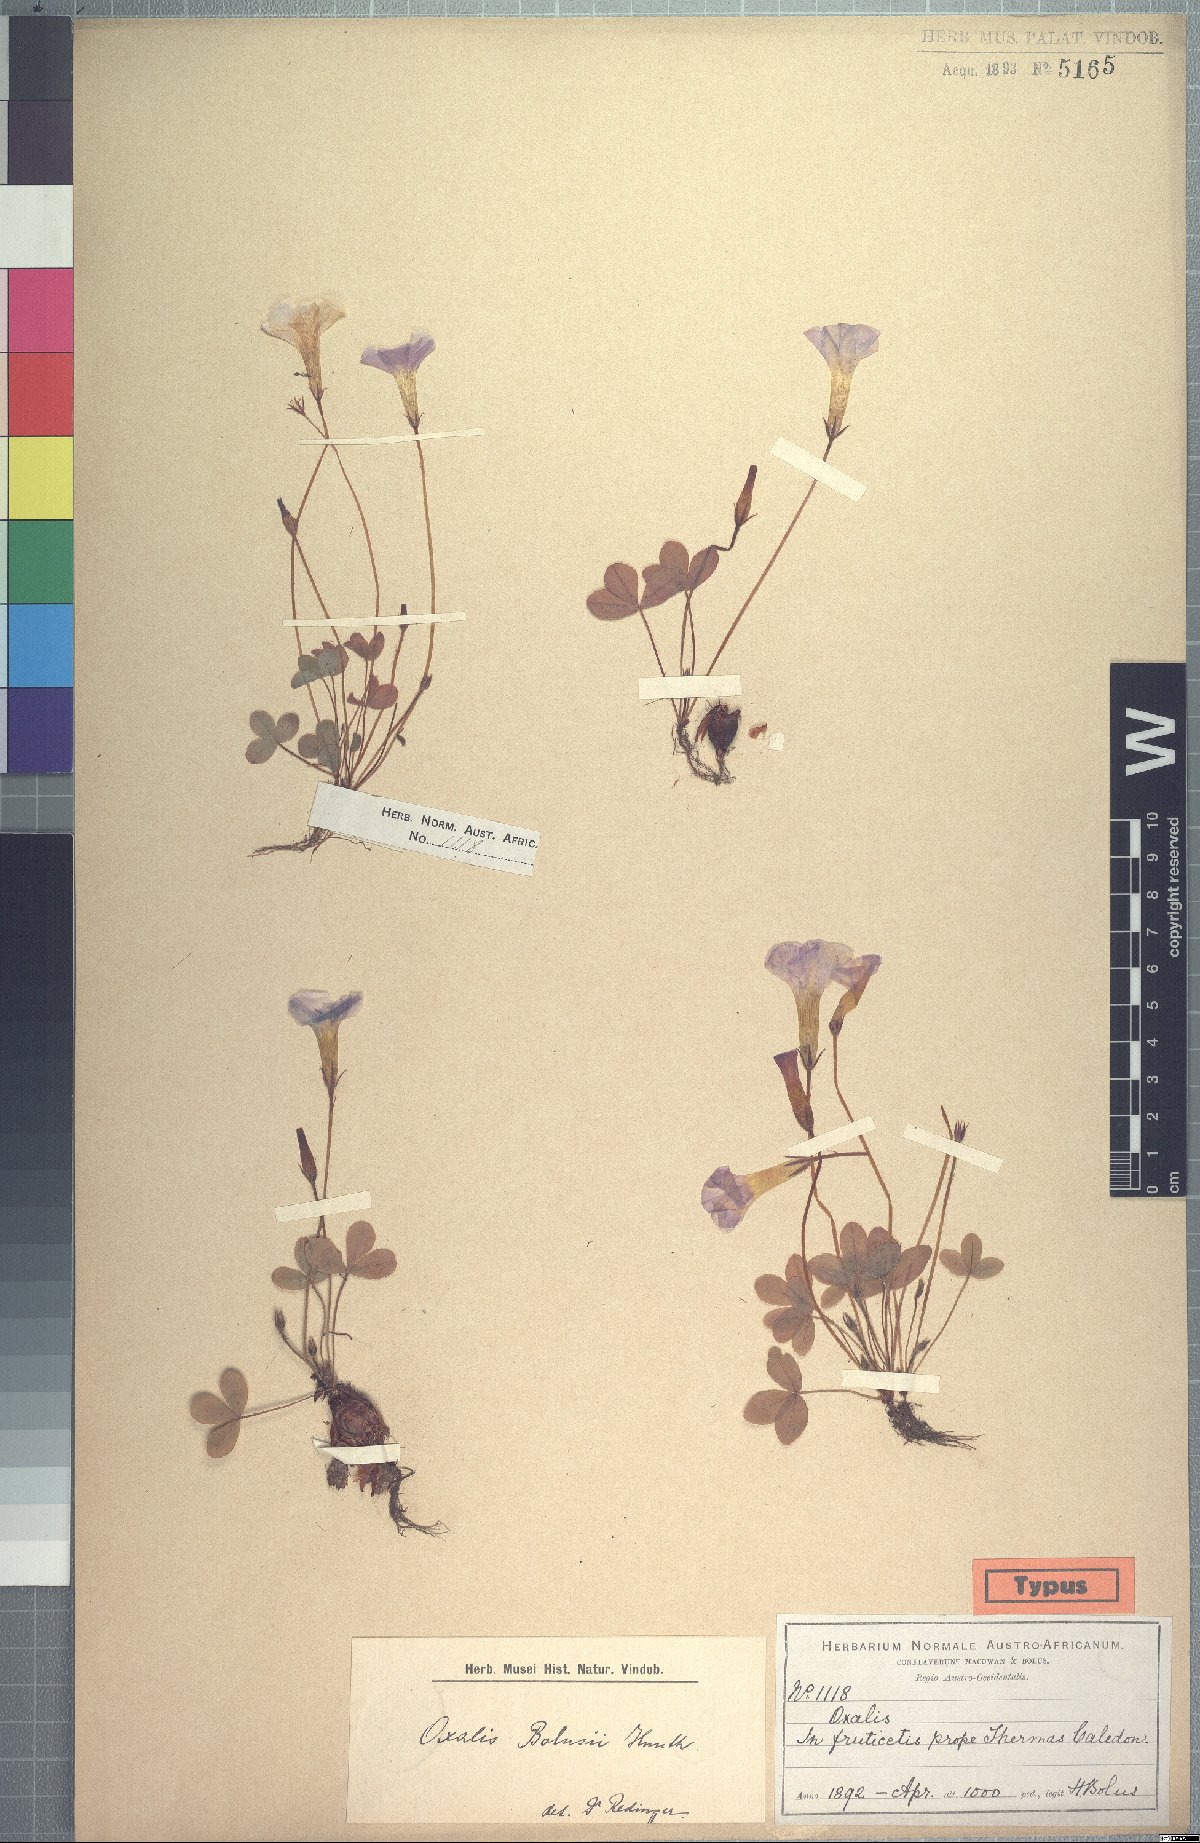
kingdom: Plantae
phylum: Tracheophyta
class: Magnoliopsida
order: Oxalidales
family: Oxalidaceae
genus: Oxalis
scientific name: Oxalis eckloniana
